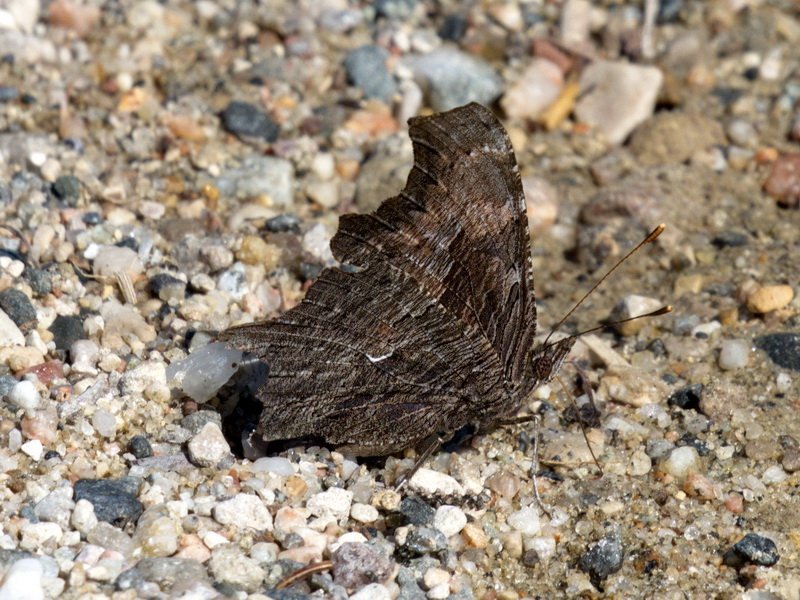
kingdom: Animalia
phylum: Arthropoda
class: Insecta
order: Lepidoptera
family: Nymphalidae
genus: Polygonia
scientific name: Polygonia progne
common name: Gray Comma
